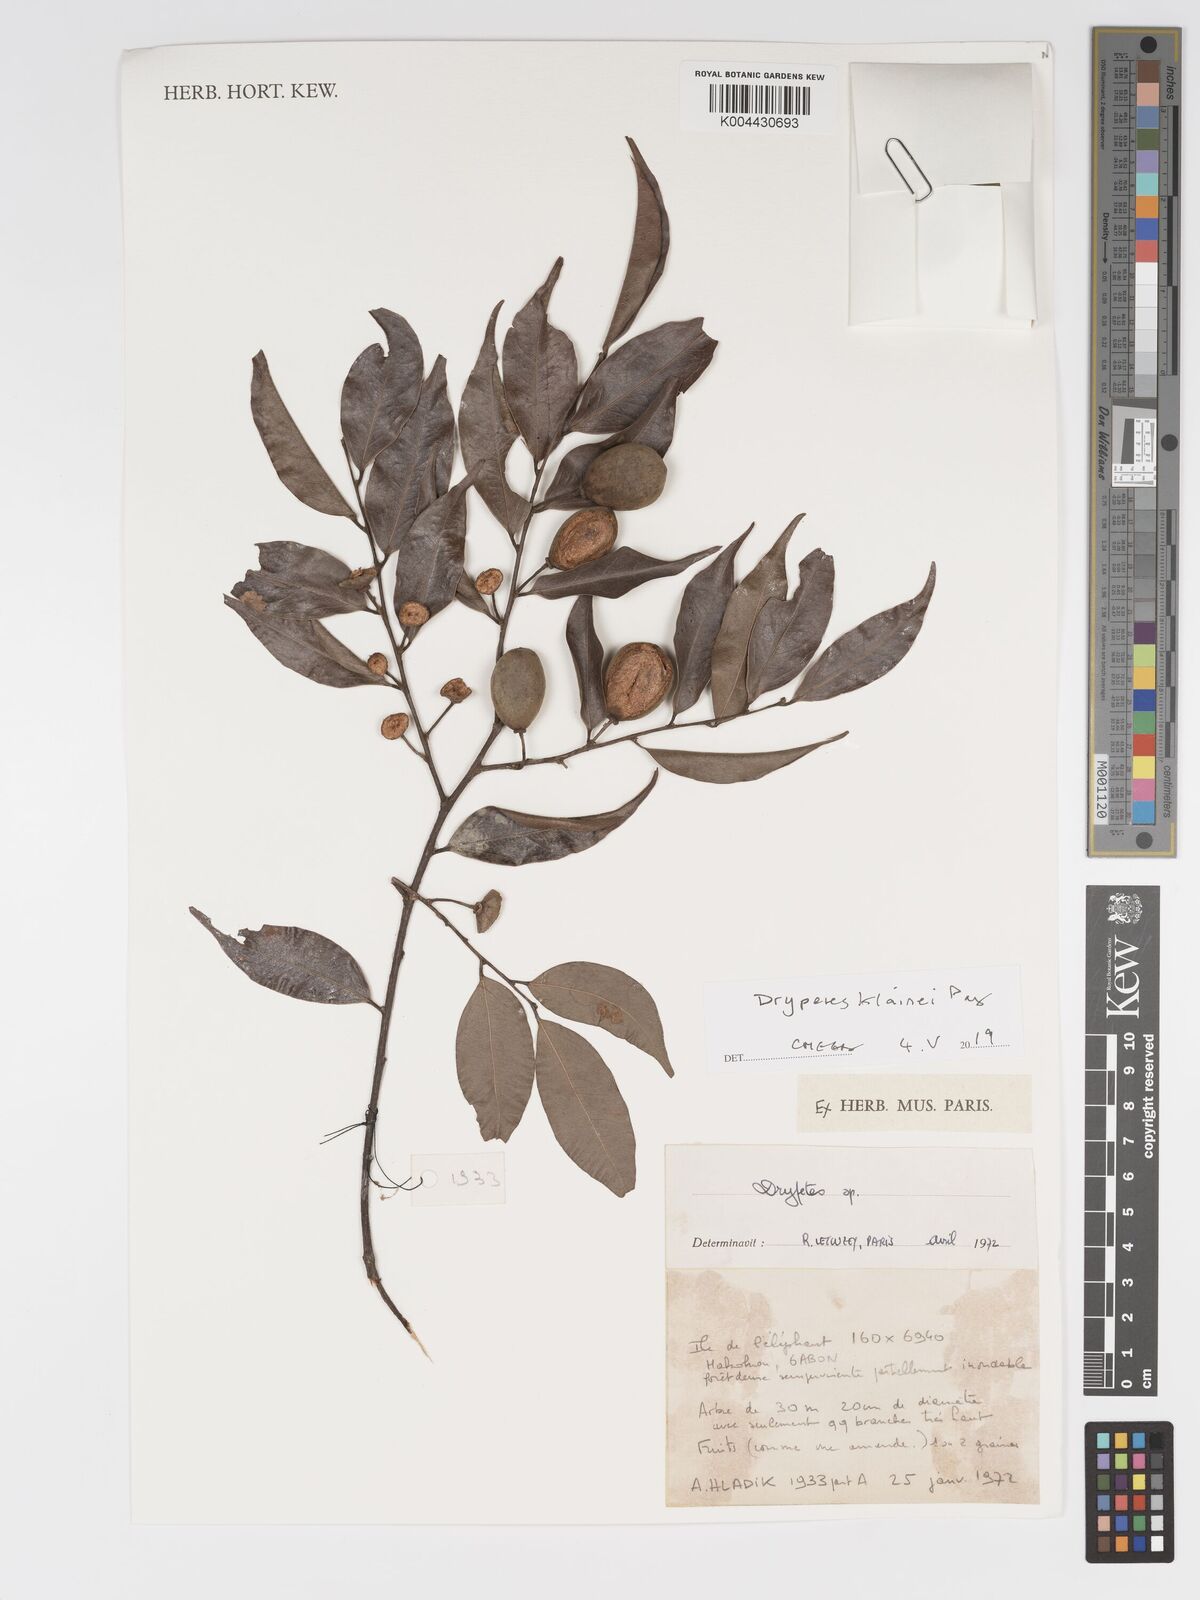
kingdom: Plantae
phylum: Tracheophyta
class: Magnoliopsida
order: Malpighiales
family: Putranjivaceae
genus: Drypetes
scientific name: Drypetes klainei
